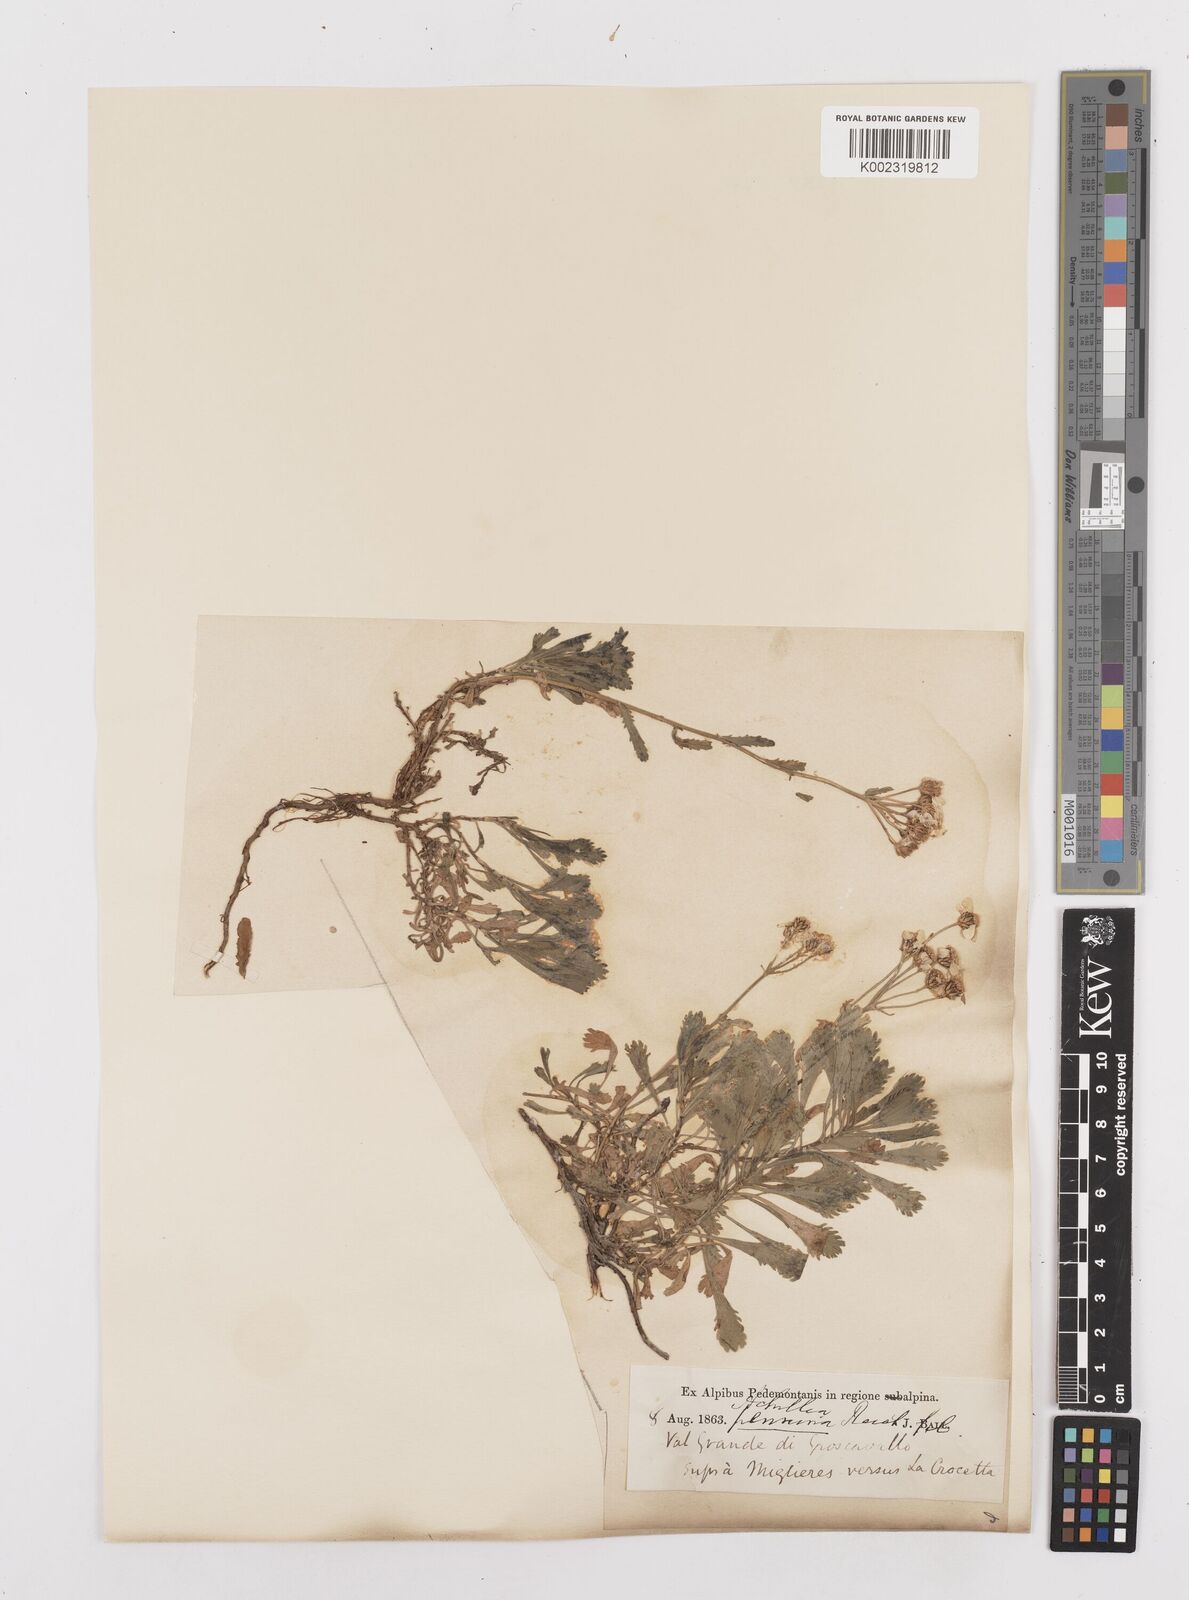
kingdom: Plantae
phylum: Tracheophyta
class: Magnoliopsida
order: Asterales
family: Asteraceae
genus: Achillea
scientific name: Achillea erba-rotta
